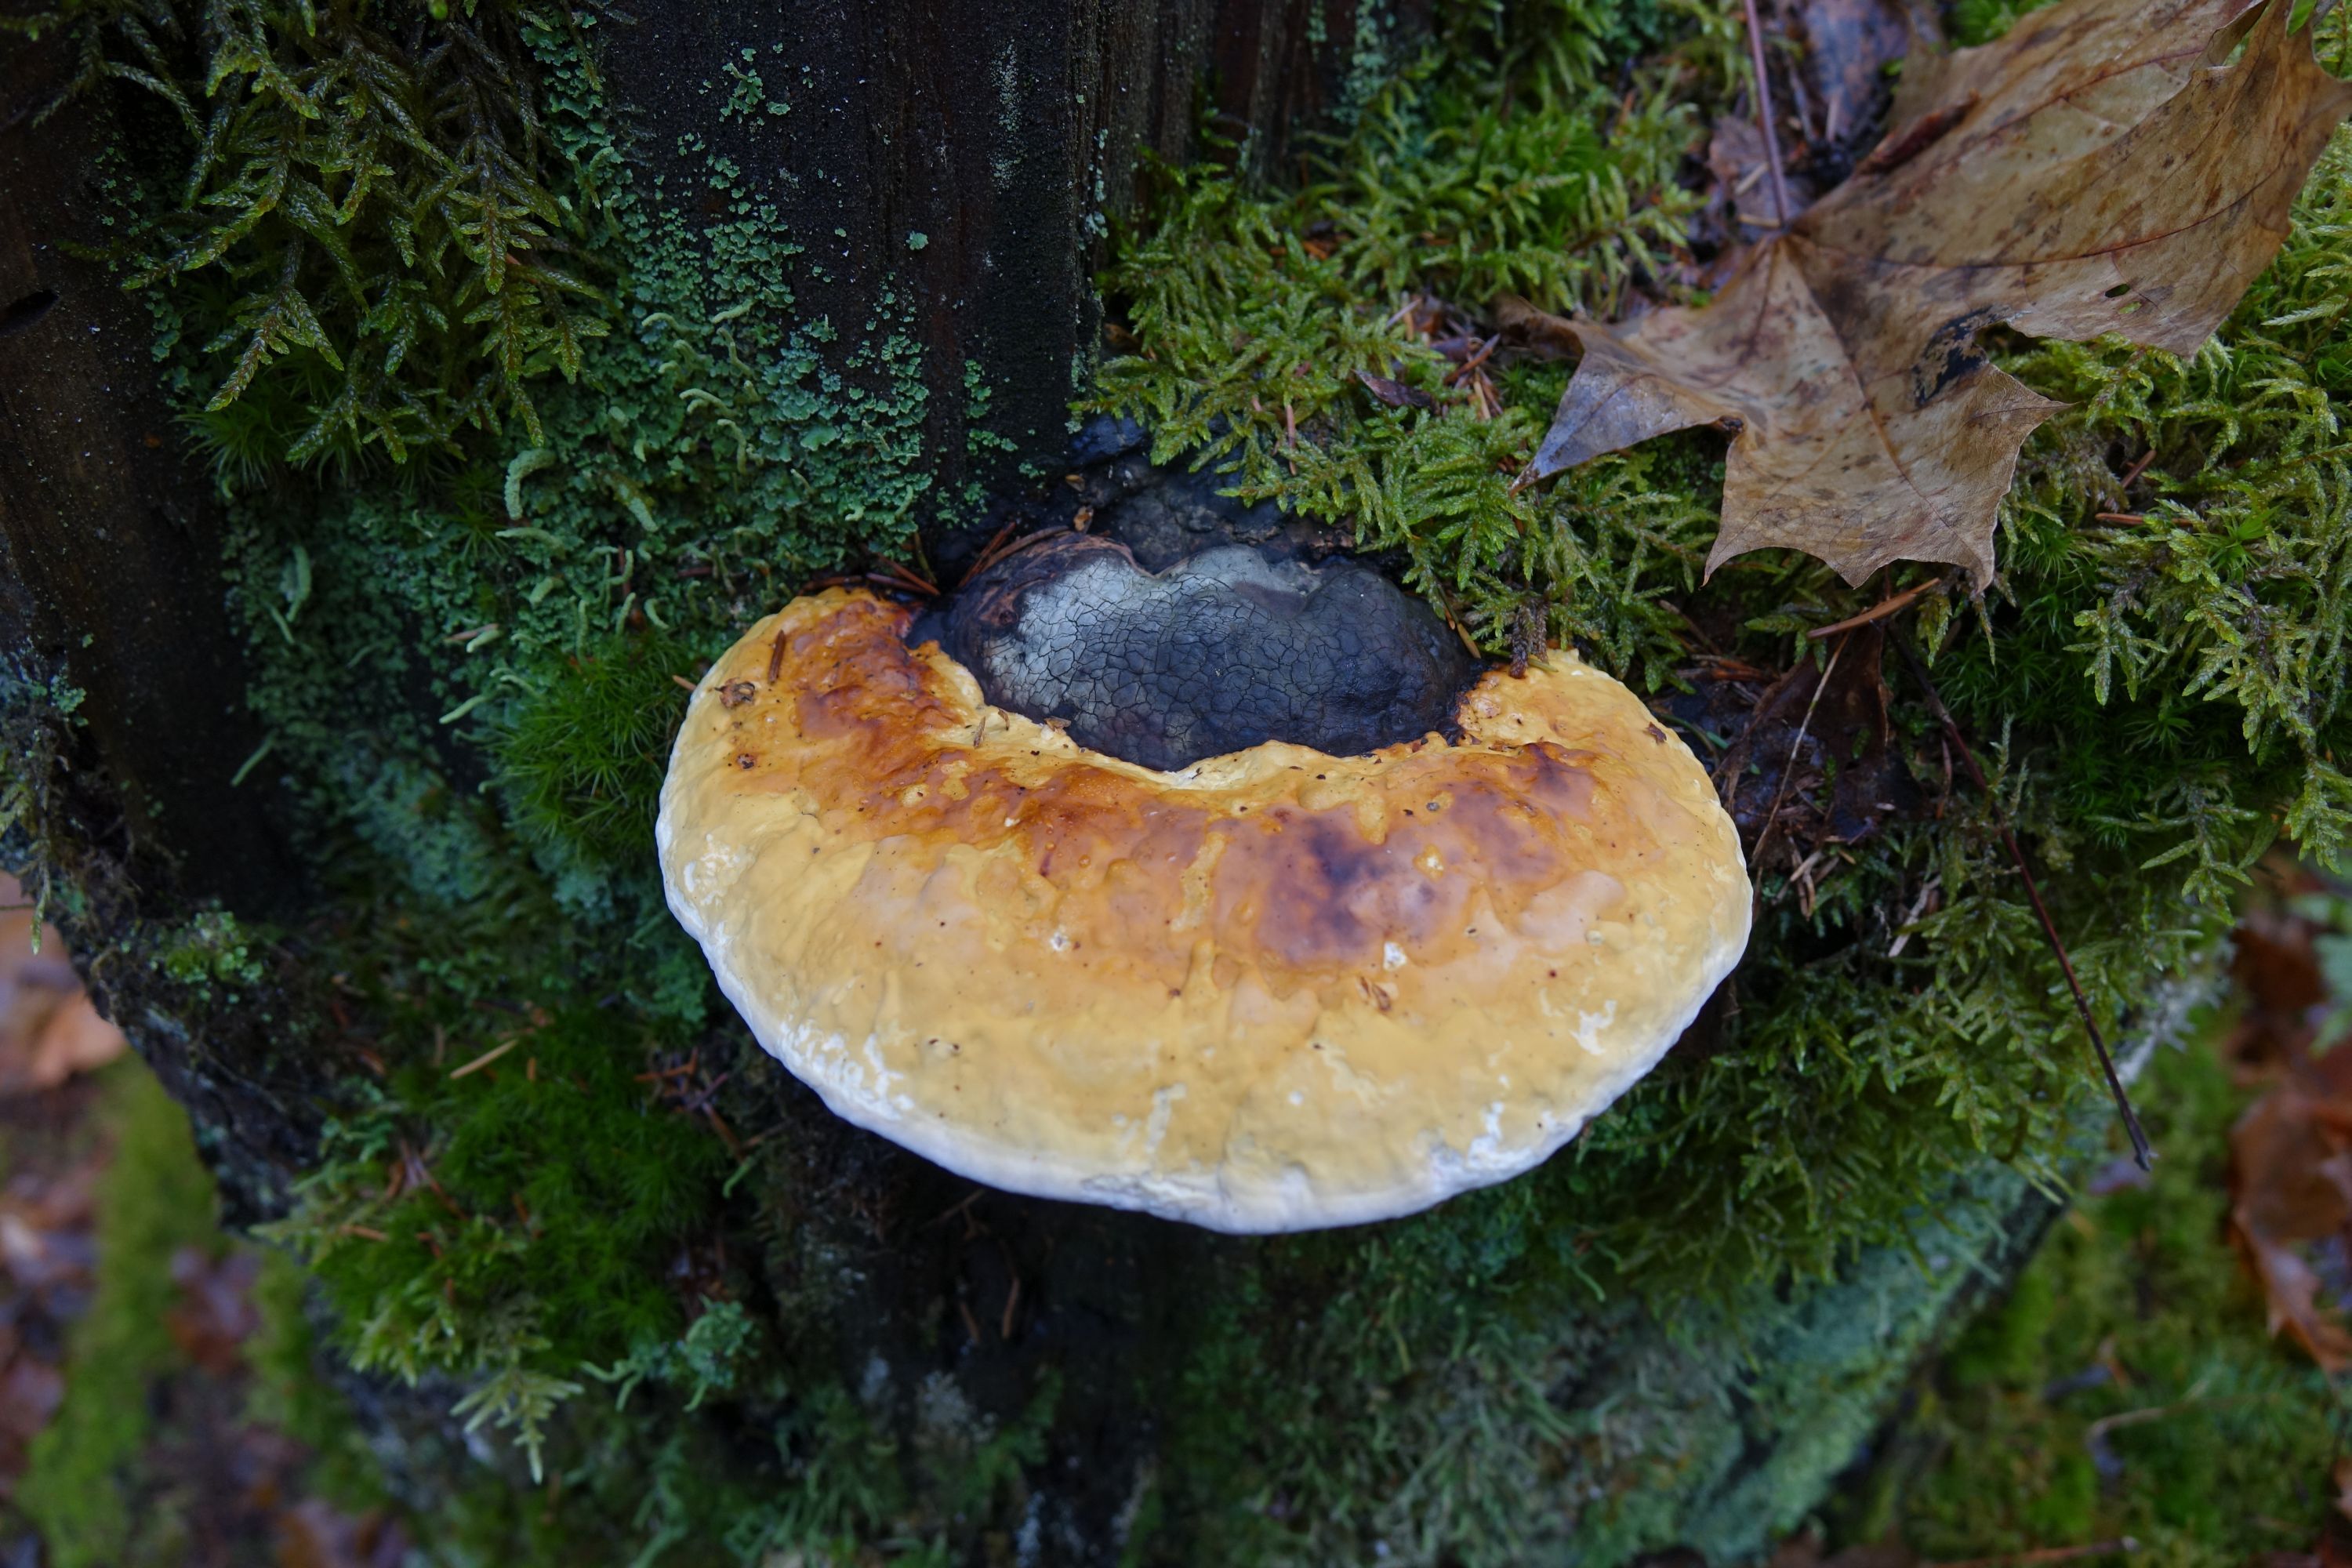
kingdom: Fungi
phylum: Basidiomycota
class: Agaricomycetes
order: Polyporales
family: Fomitopsidaceae
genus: Fomitopsis
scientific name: Fomitopsis pinicola
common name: Red-belted bracket
